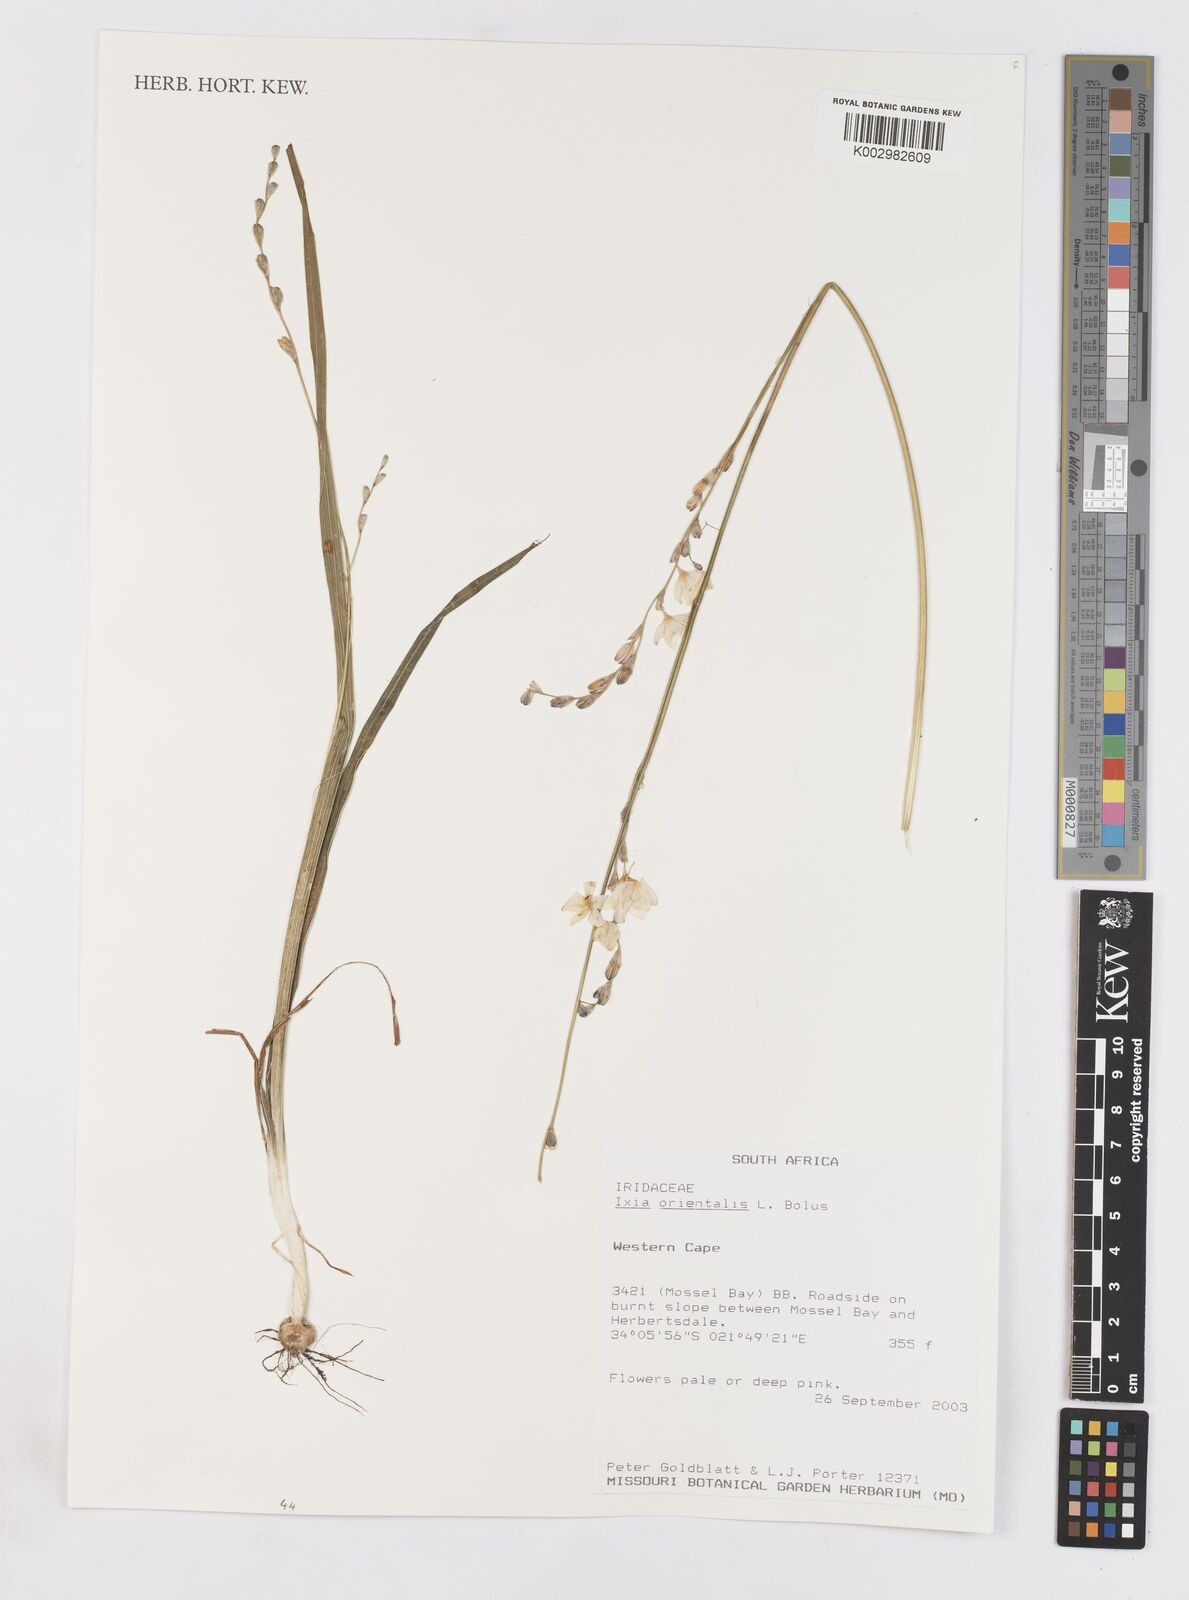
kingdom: Plantae
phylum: Tracheophyta
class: Liliopsida
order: Asparagales
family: Iridaceae
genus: Ixia
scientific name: Ixia orientalis
